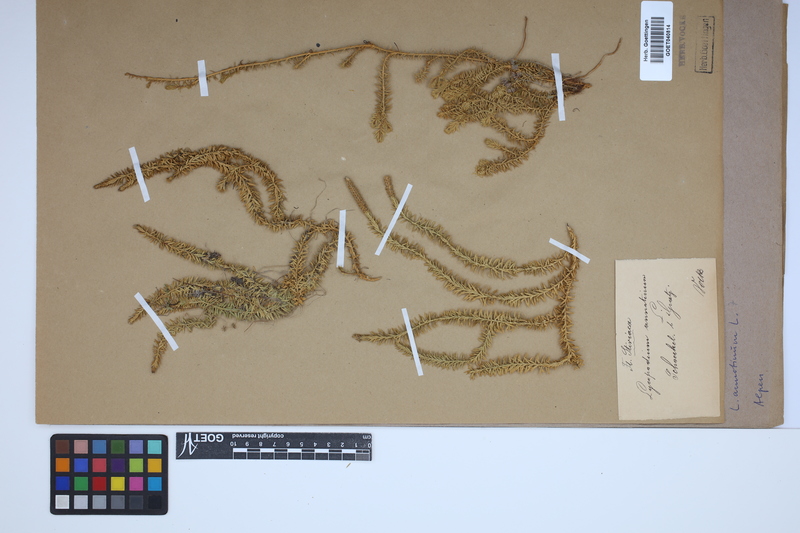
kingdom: Plantae
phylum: Tracheophyta
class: Lycopodiopsida
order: Lycopodiales
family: Lycopodiaceae
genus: Spinulum
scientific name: Spinulum annotinum
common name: Interrupted club-moss
